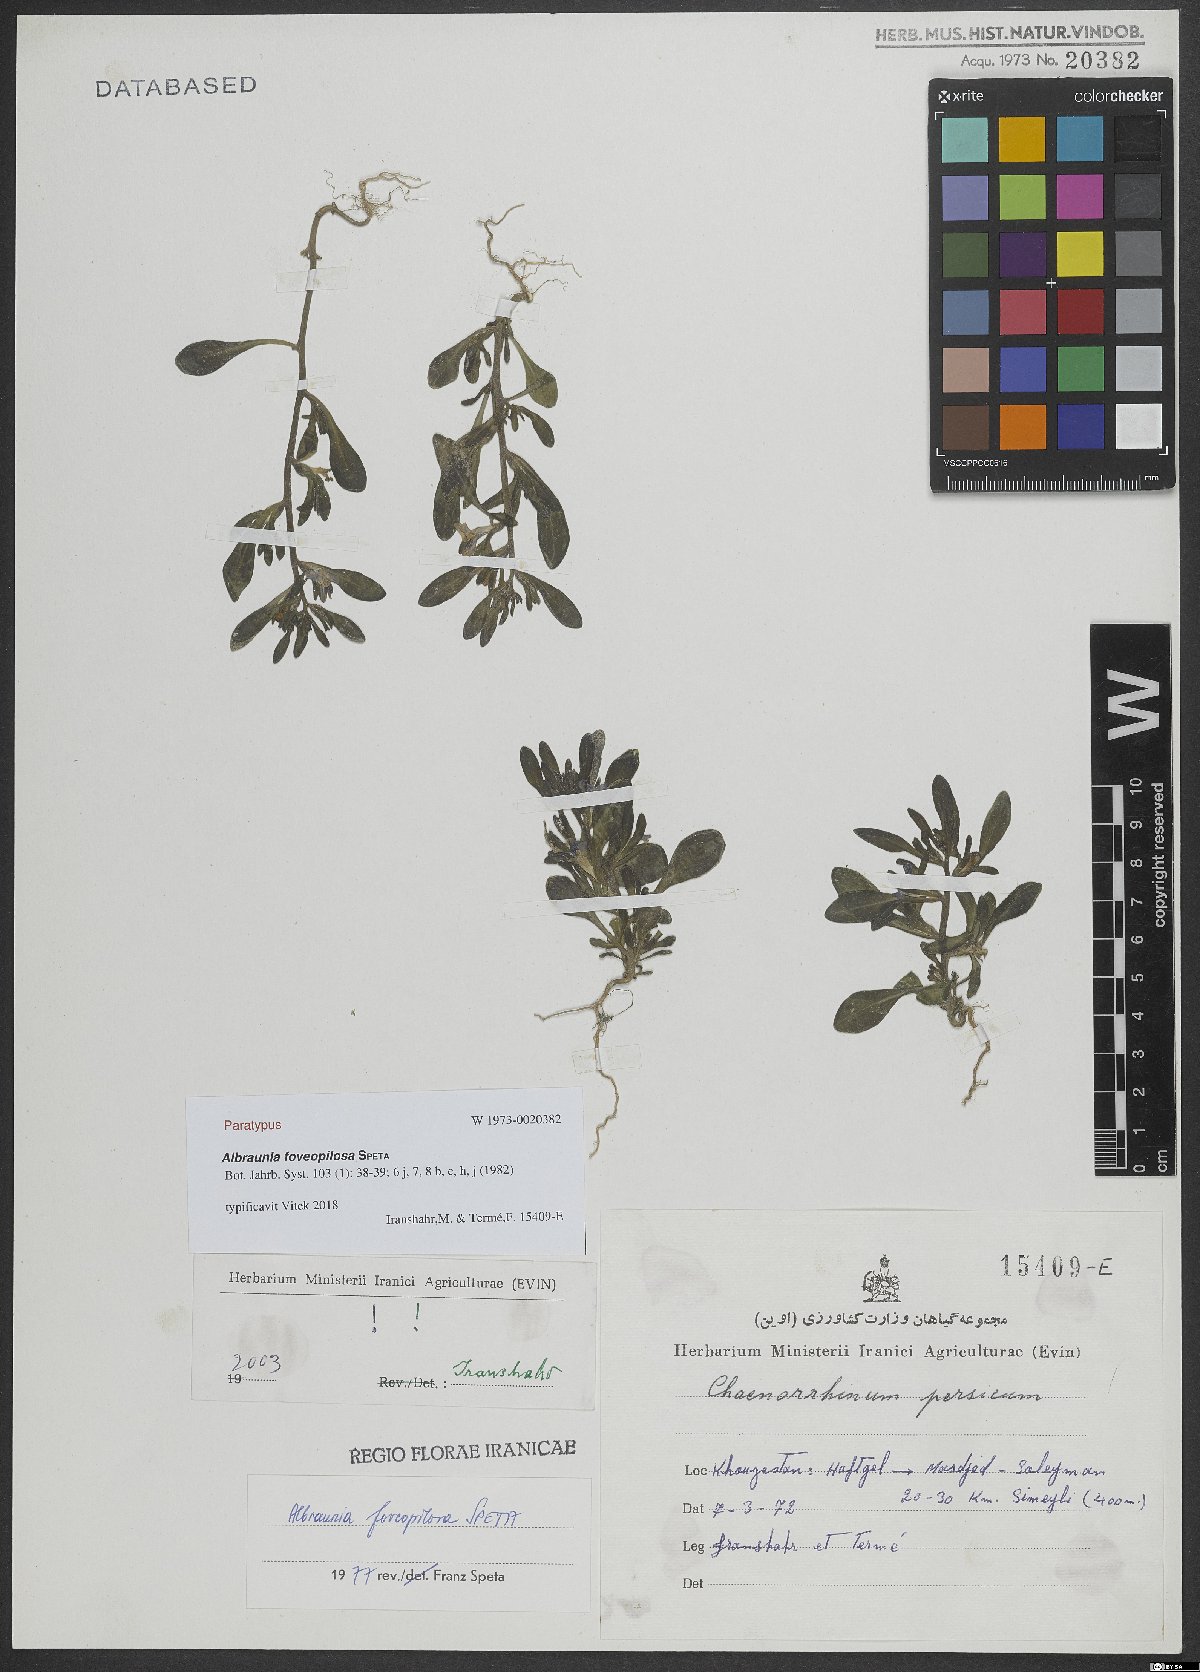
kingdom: Plantae
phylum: Tracheophyta
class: Magnoliopsida
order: Lamiales
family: Plantaginaceae
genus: Albraunia
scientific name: Albraunia foveopilosa
